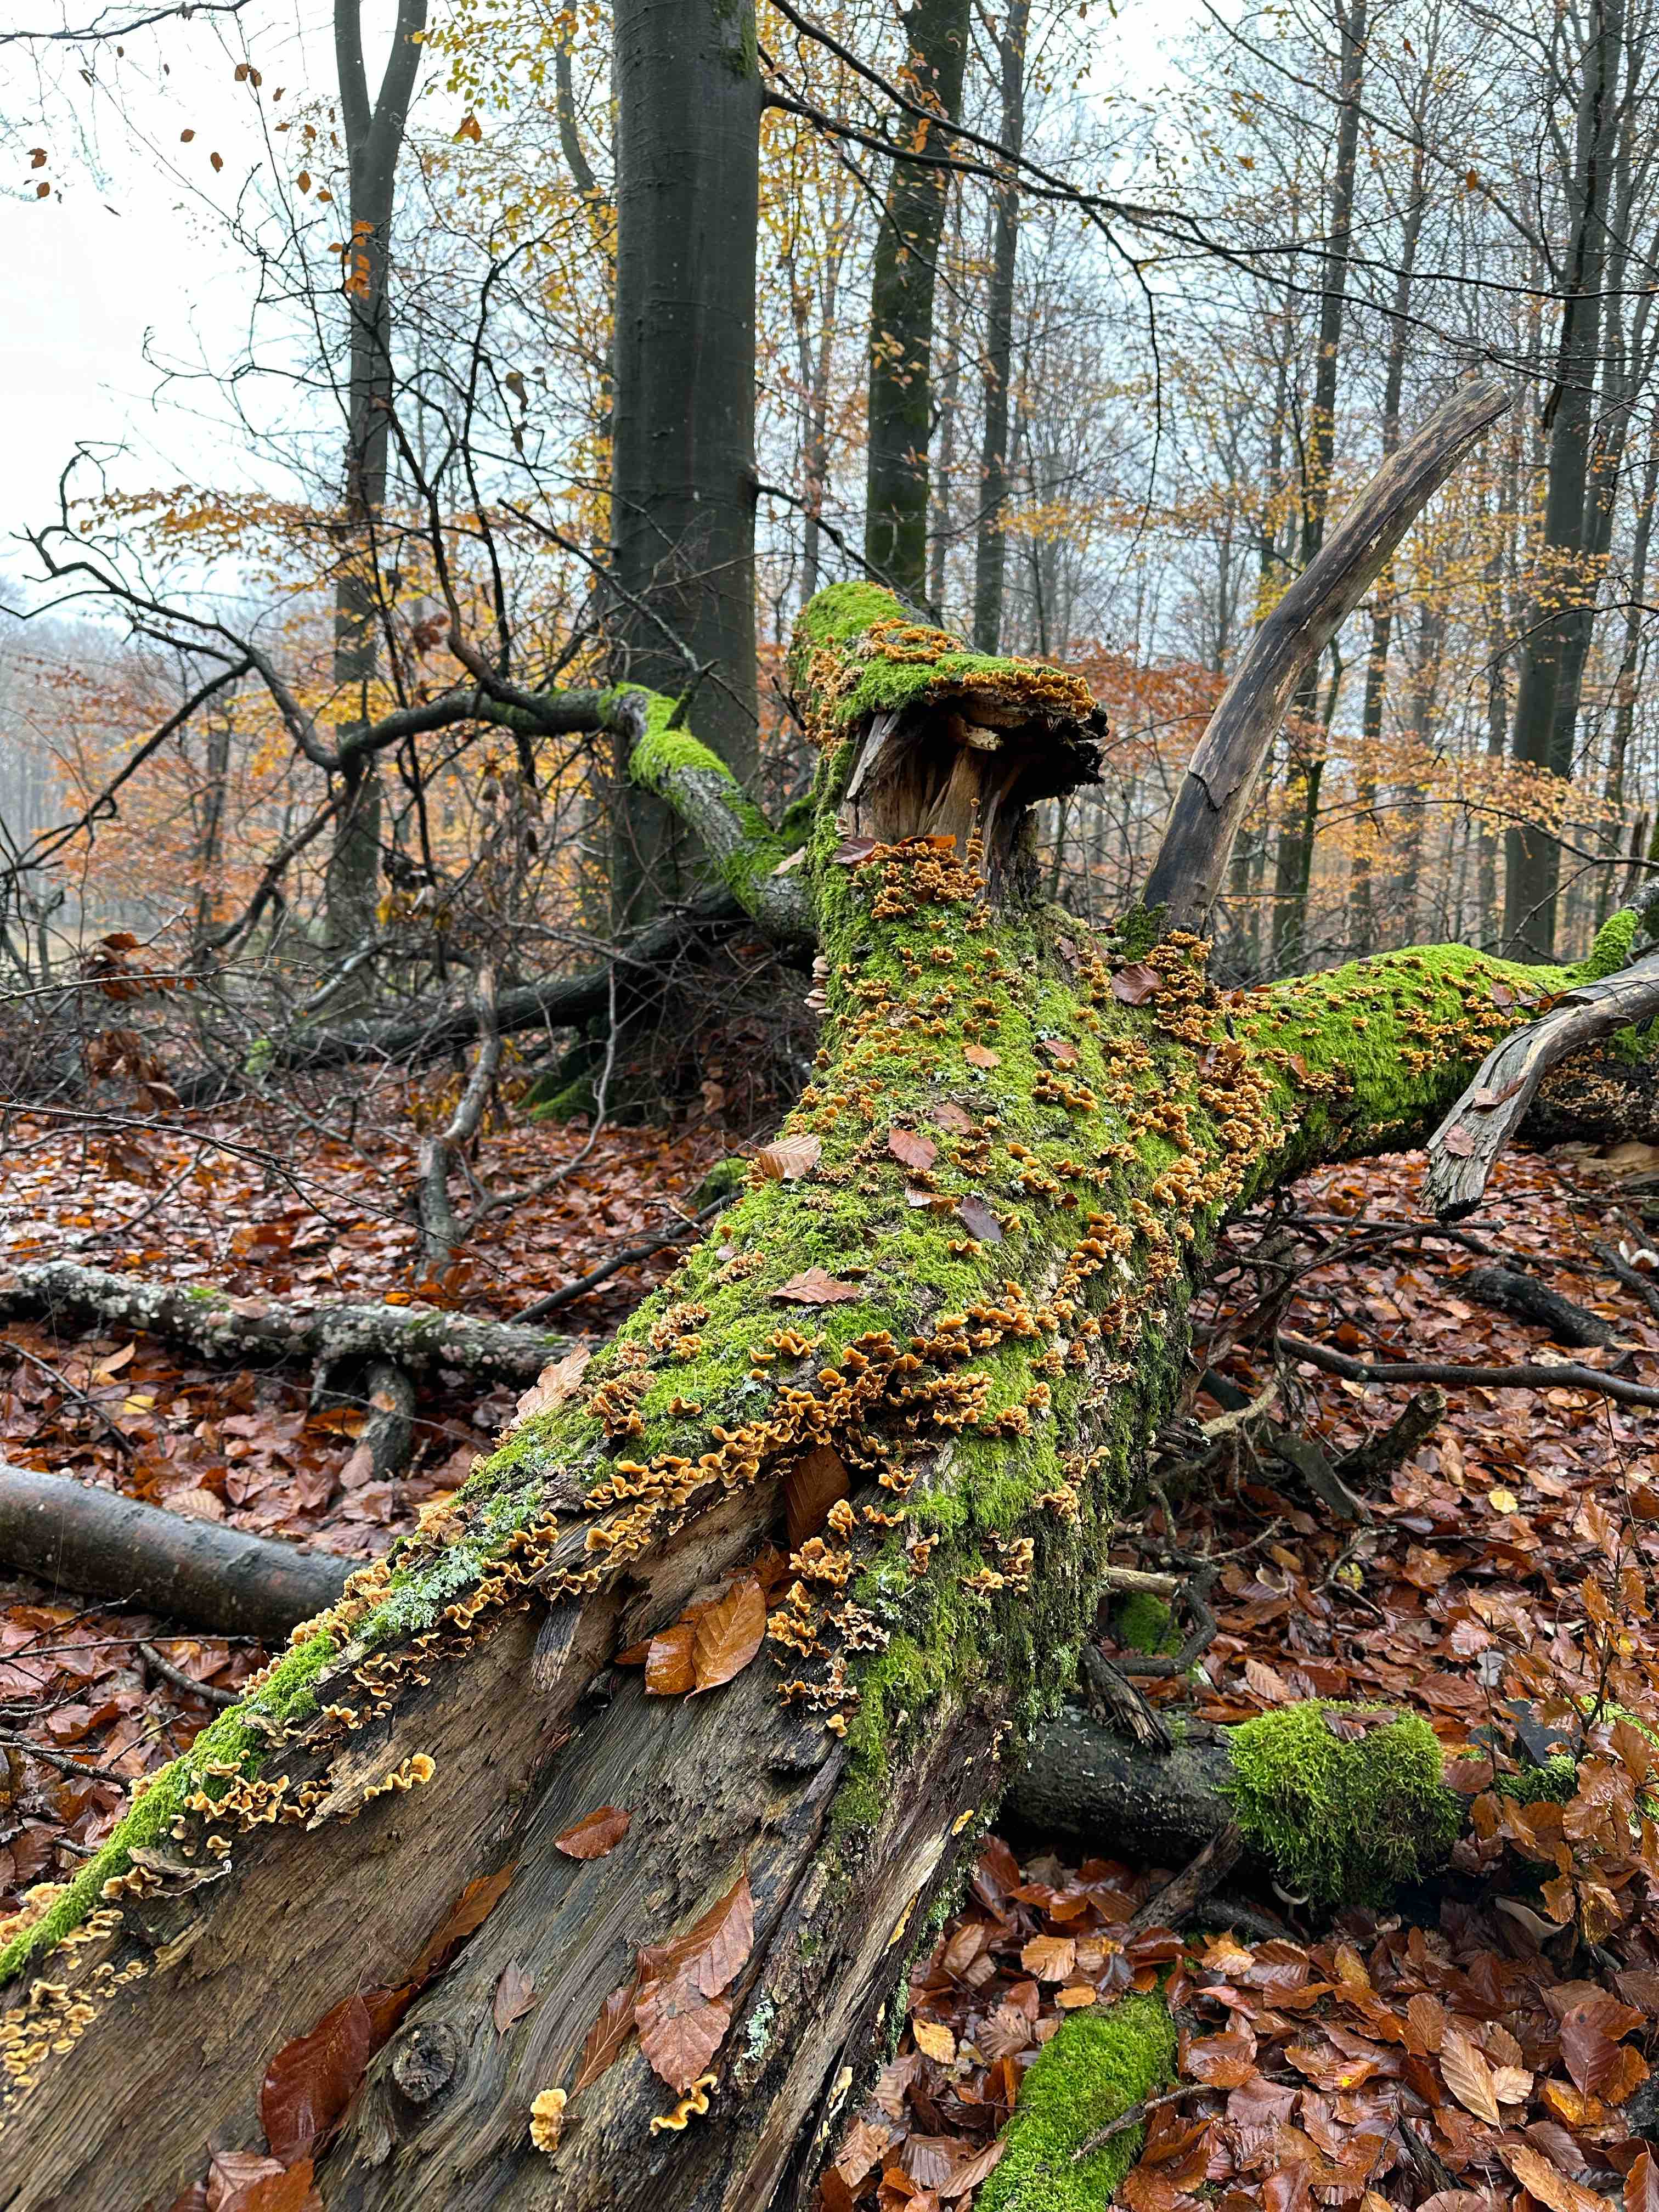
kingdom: Fungi
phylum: Basidiomycota
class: Agaricomycetes
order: Russulales
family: Stereaceae
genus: Stereum
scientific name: Stereum hirsutum
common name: håret lædersvamp
